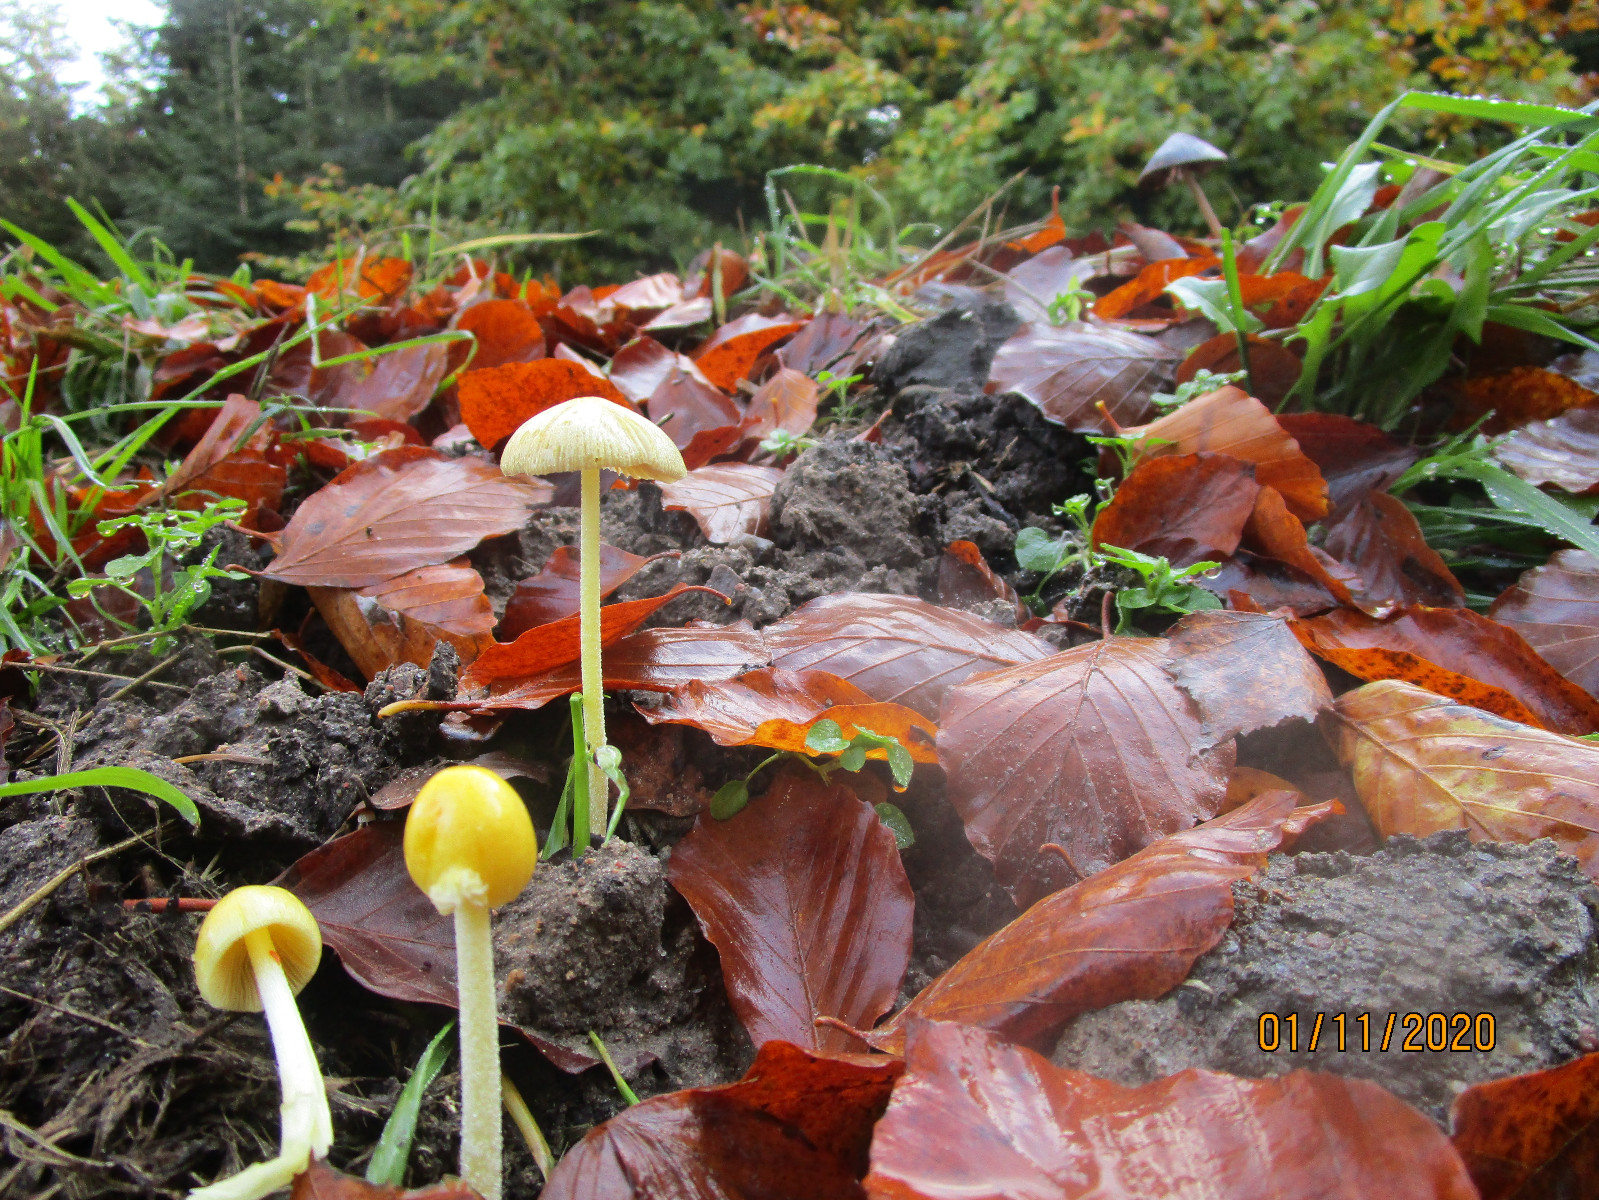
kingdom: Fungi
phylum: Basidiomycota
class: Agaricomycetes
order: Agaricales
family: Bolbitiaceae
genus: Bolbitius
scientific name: Bolbitius titubans
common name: almindelig gulhat
